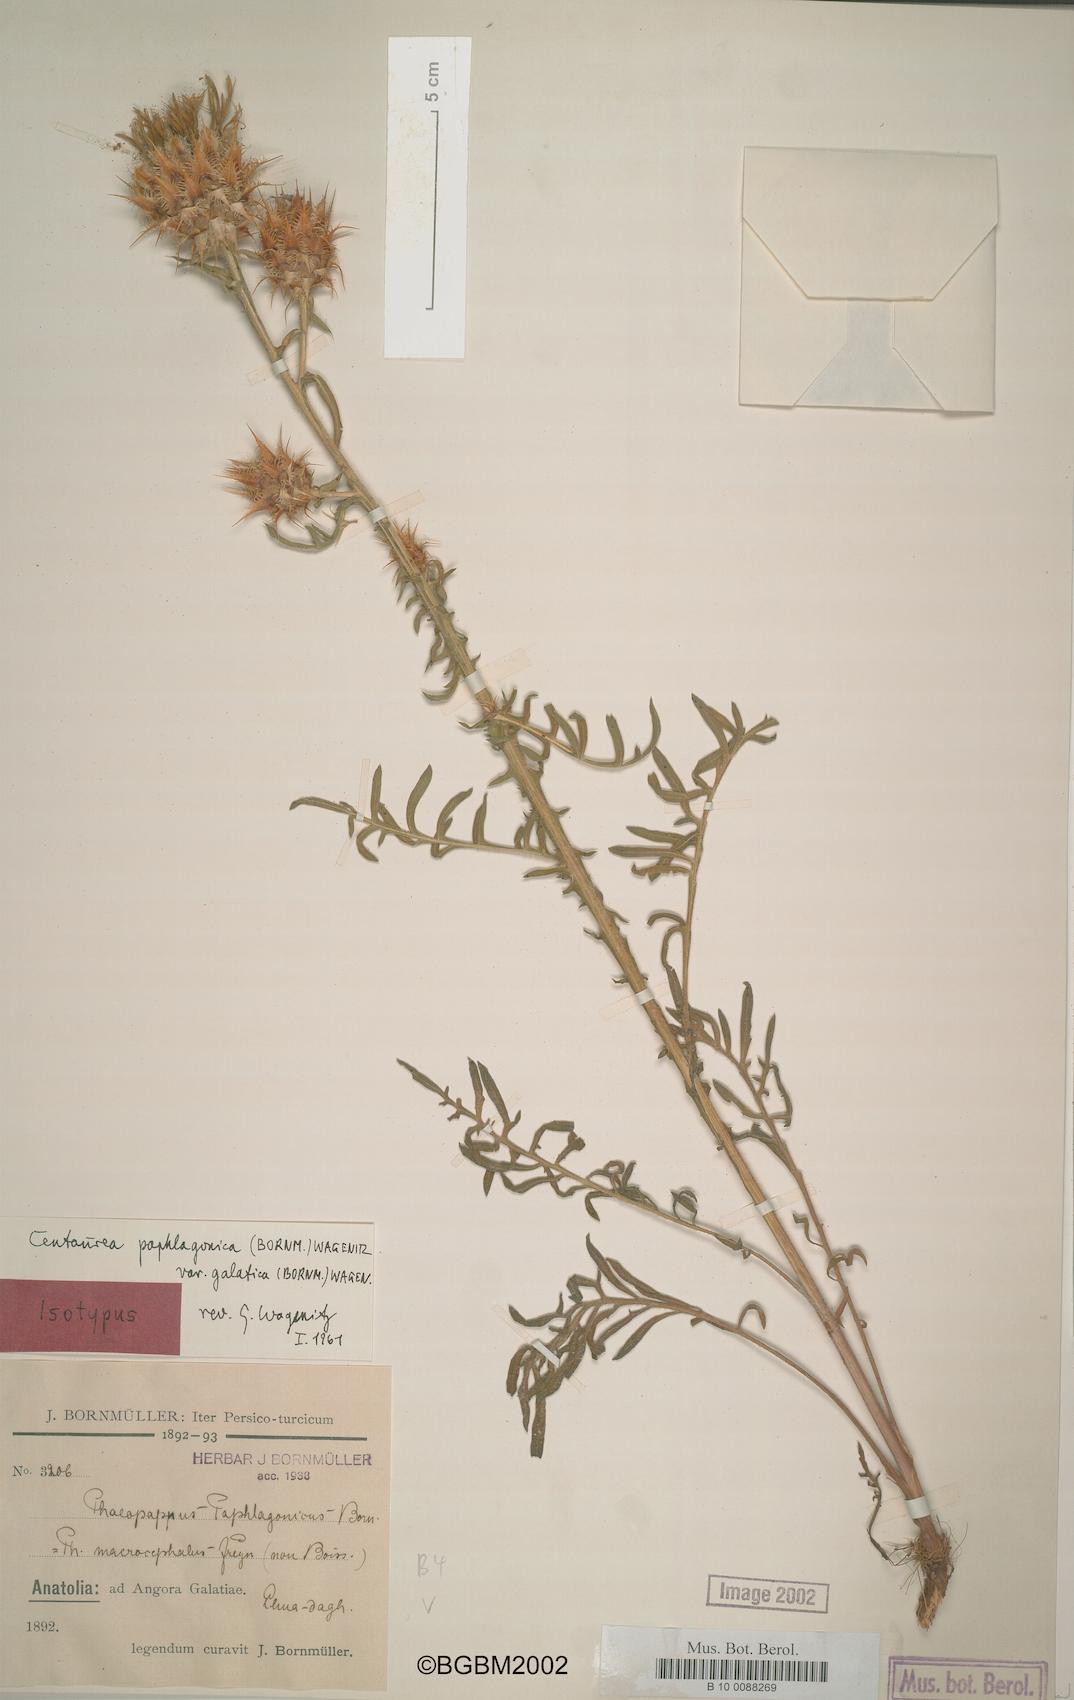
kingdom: Plantae
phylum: Tracheophyta
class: Magnoliopsida
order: Asterales
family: Asteraceae
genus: Centaurea
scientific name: Centaurea paphlagonica
